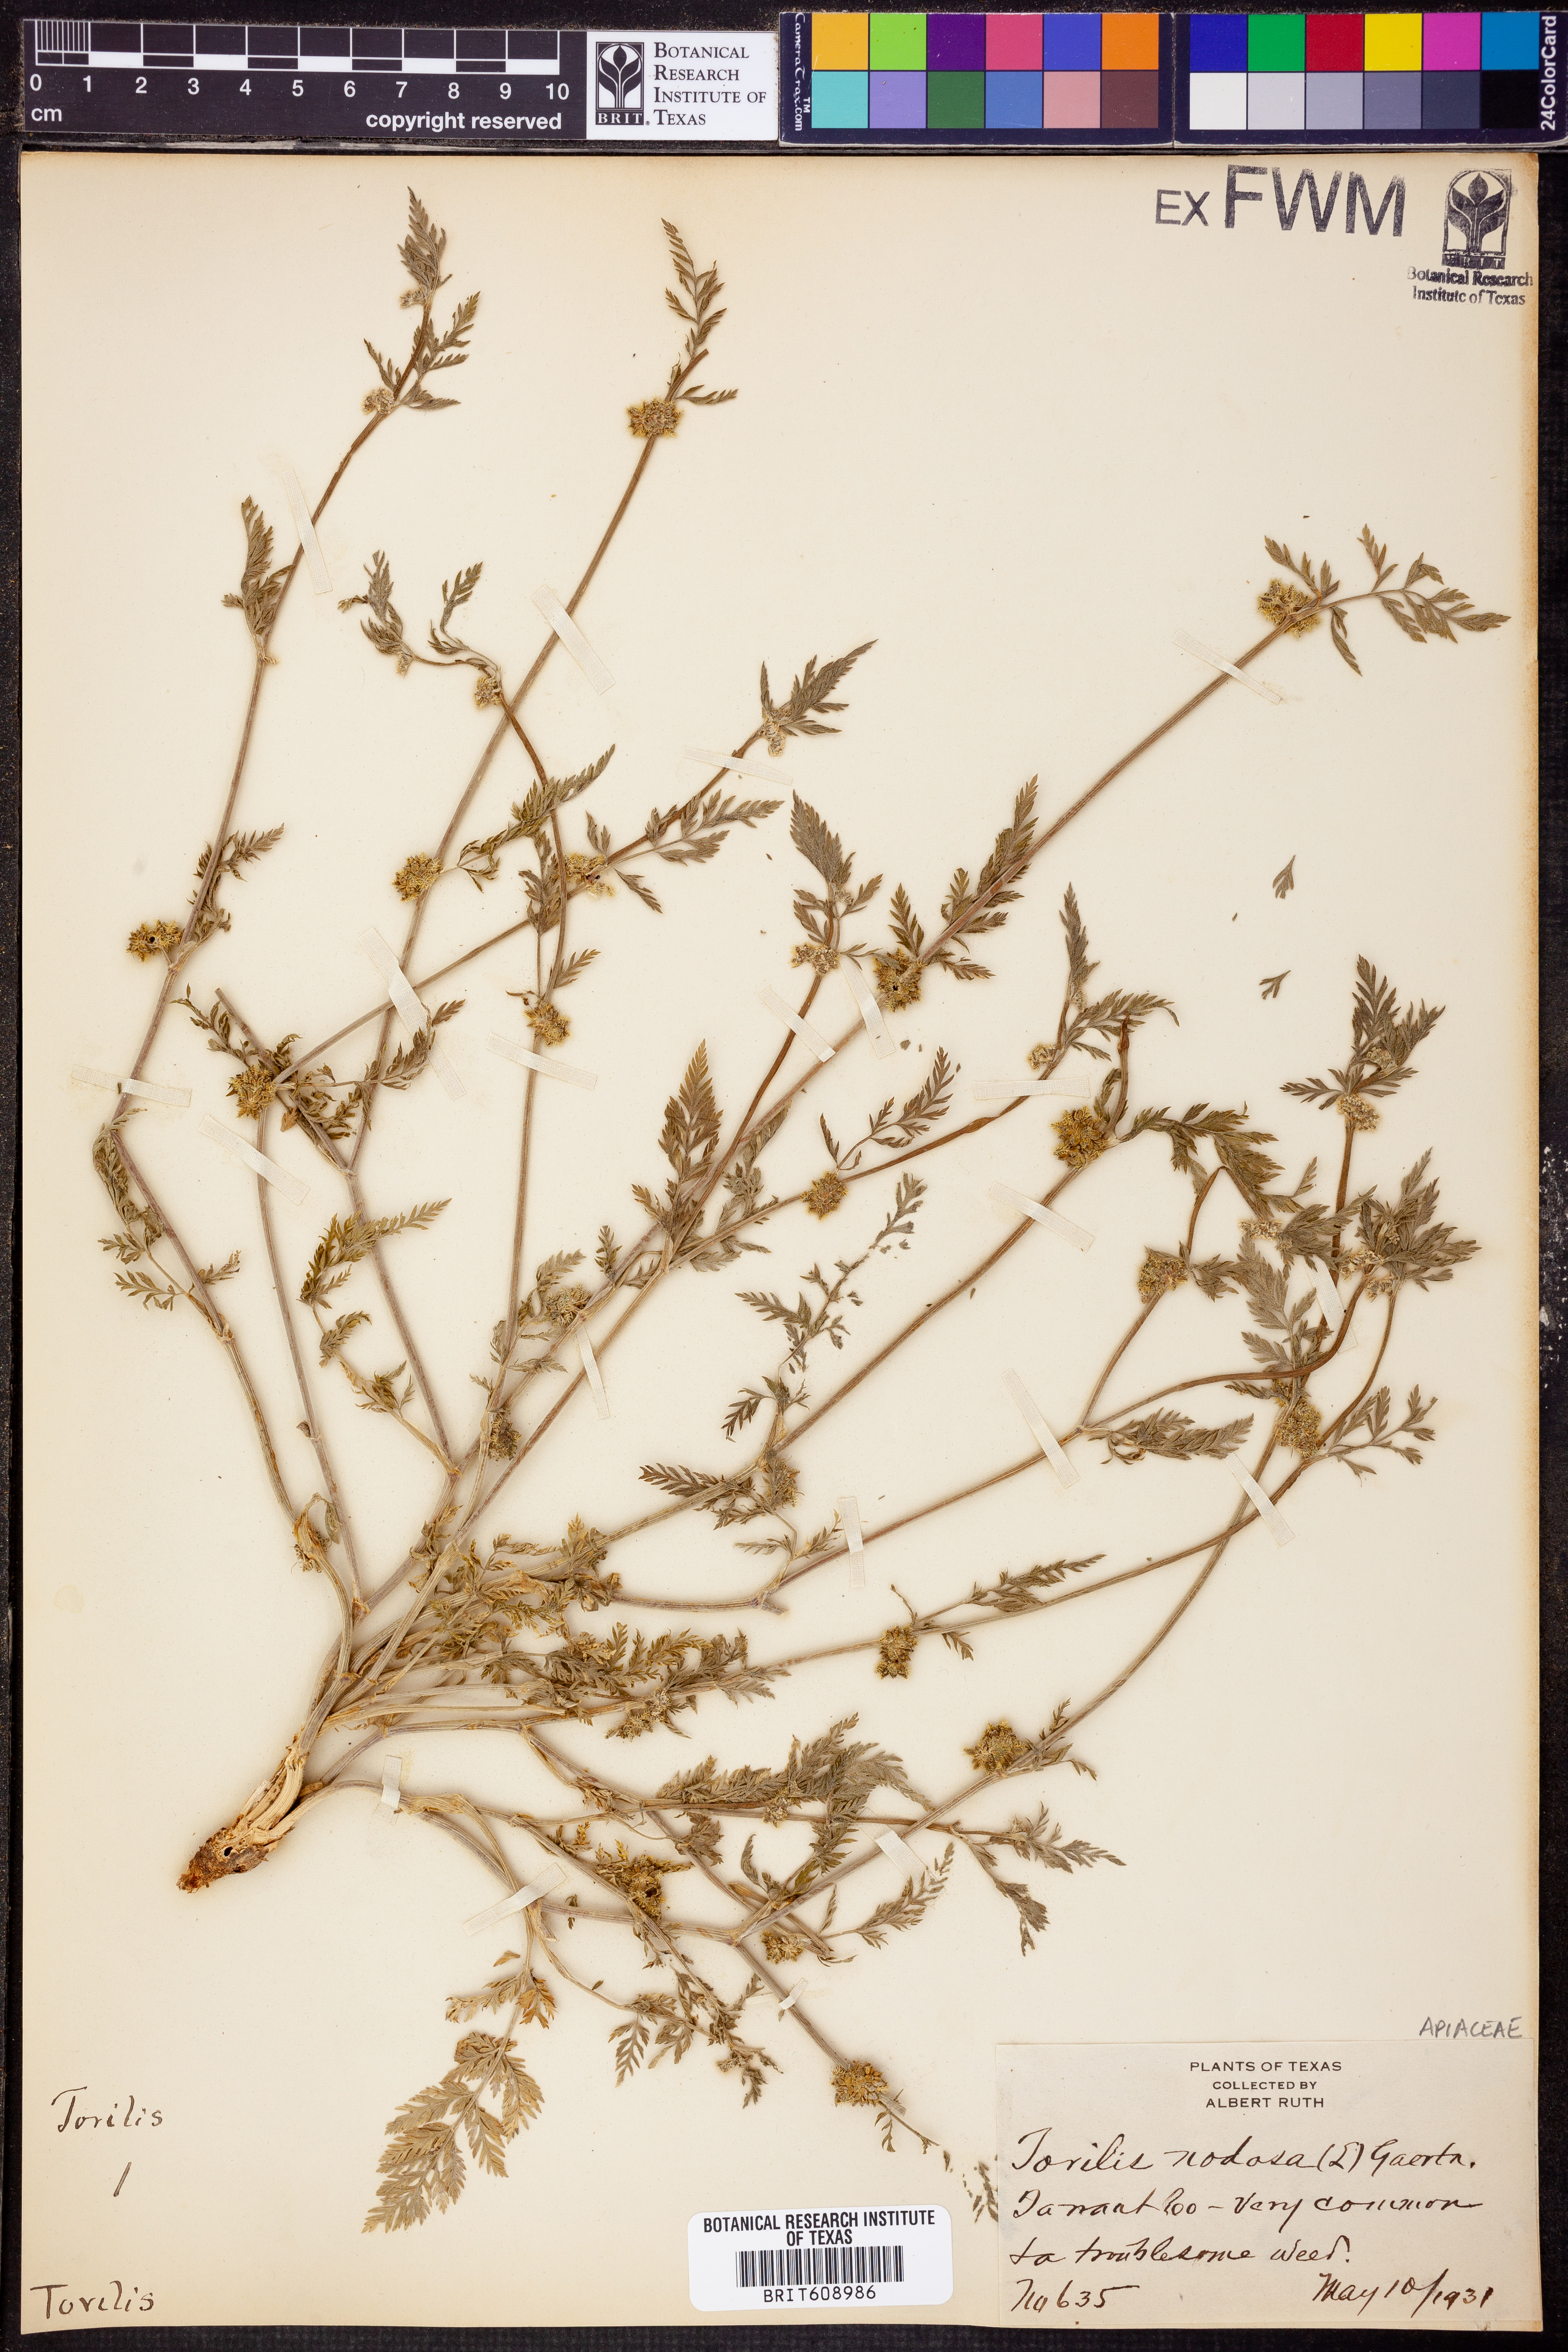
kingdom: Plantae
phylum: Tracheophyta
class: Magnoliopsida
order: Apiales
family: Apiaceae
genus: Torilis
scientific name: Torilis nodosa
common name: Knotted hedge-parsley
